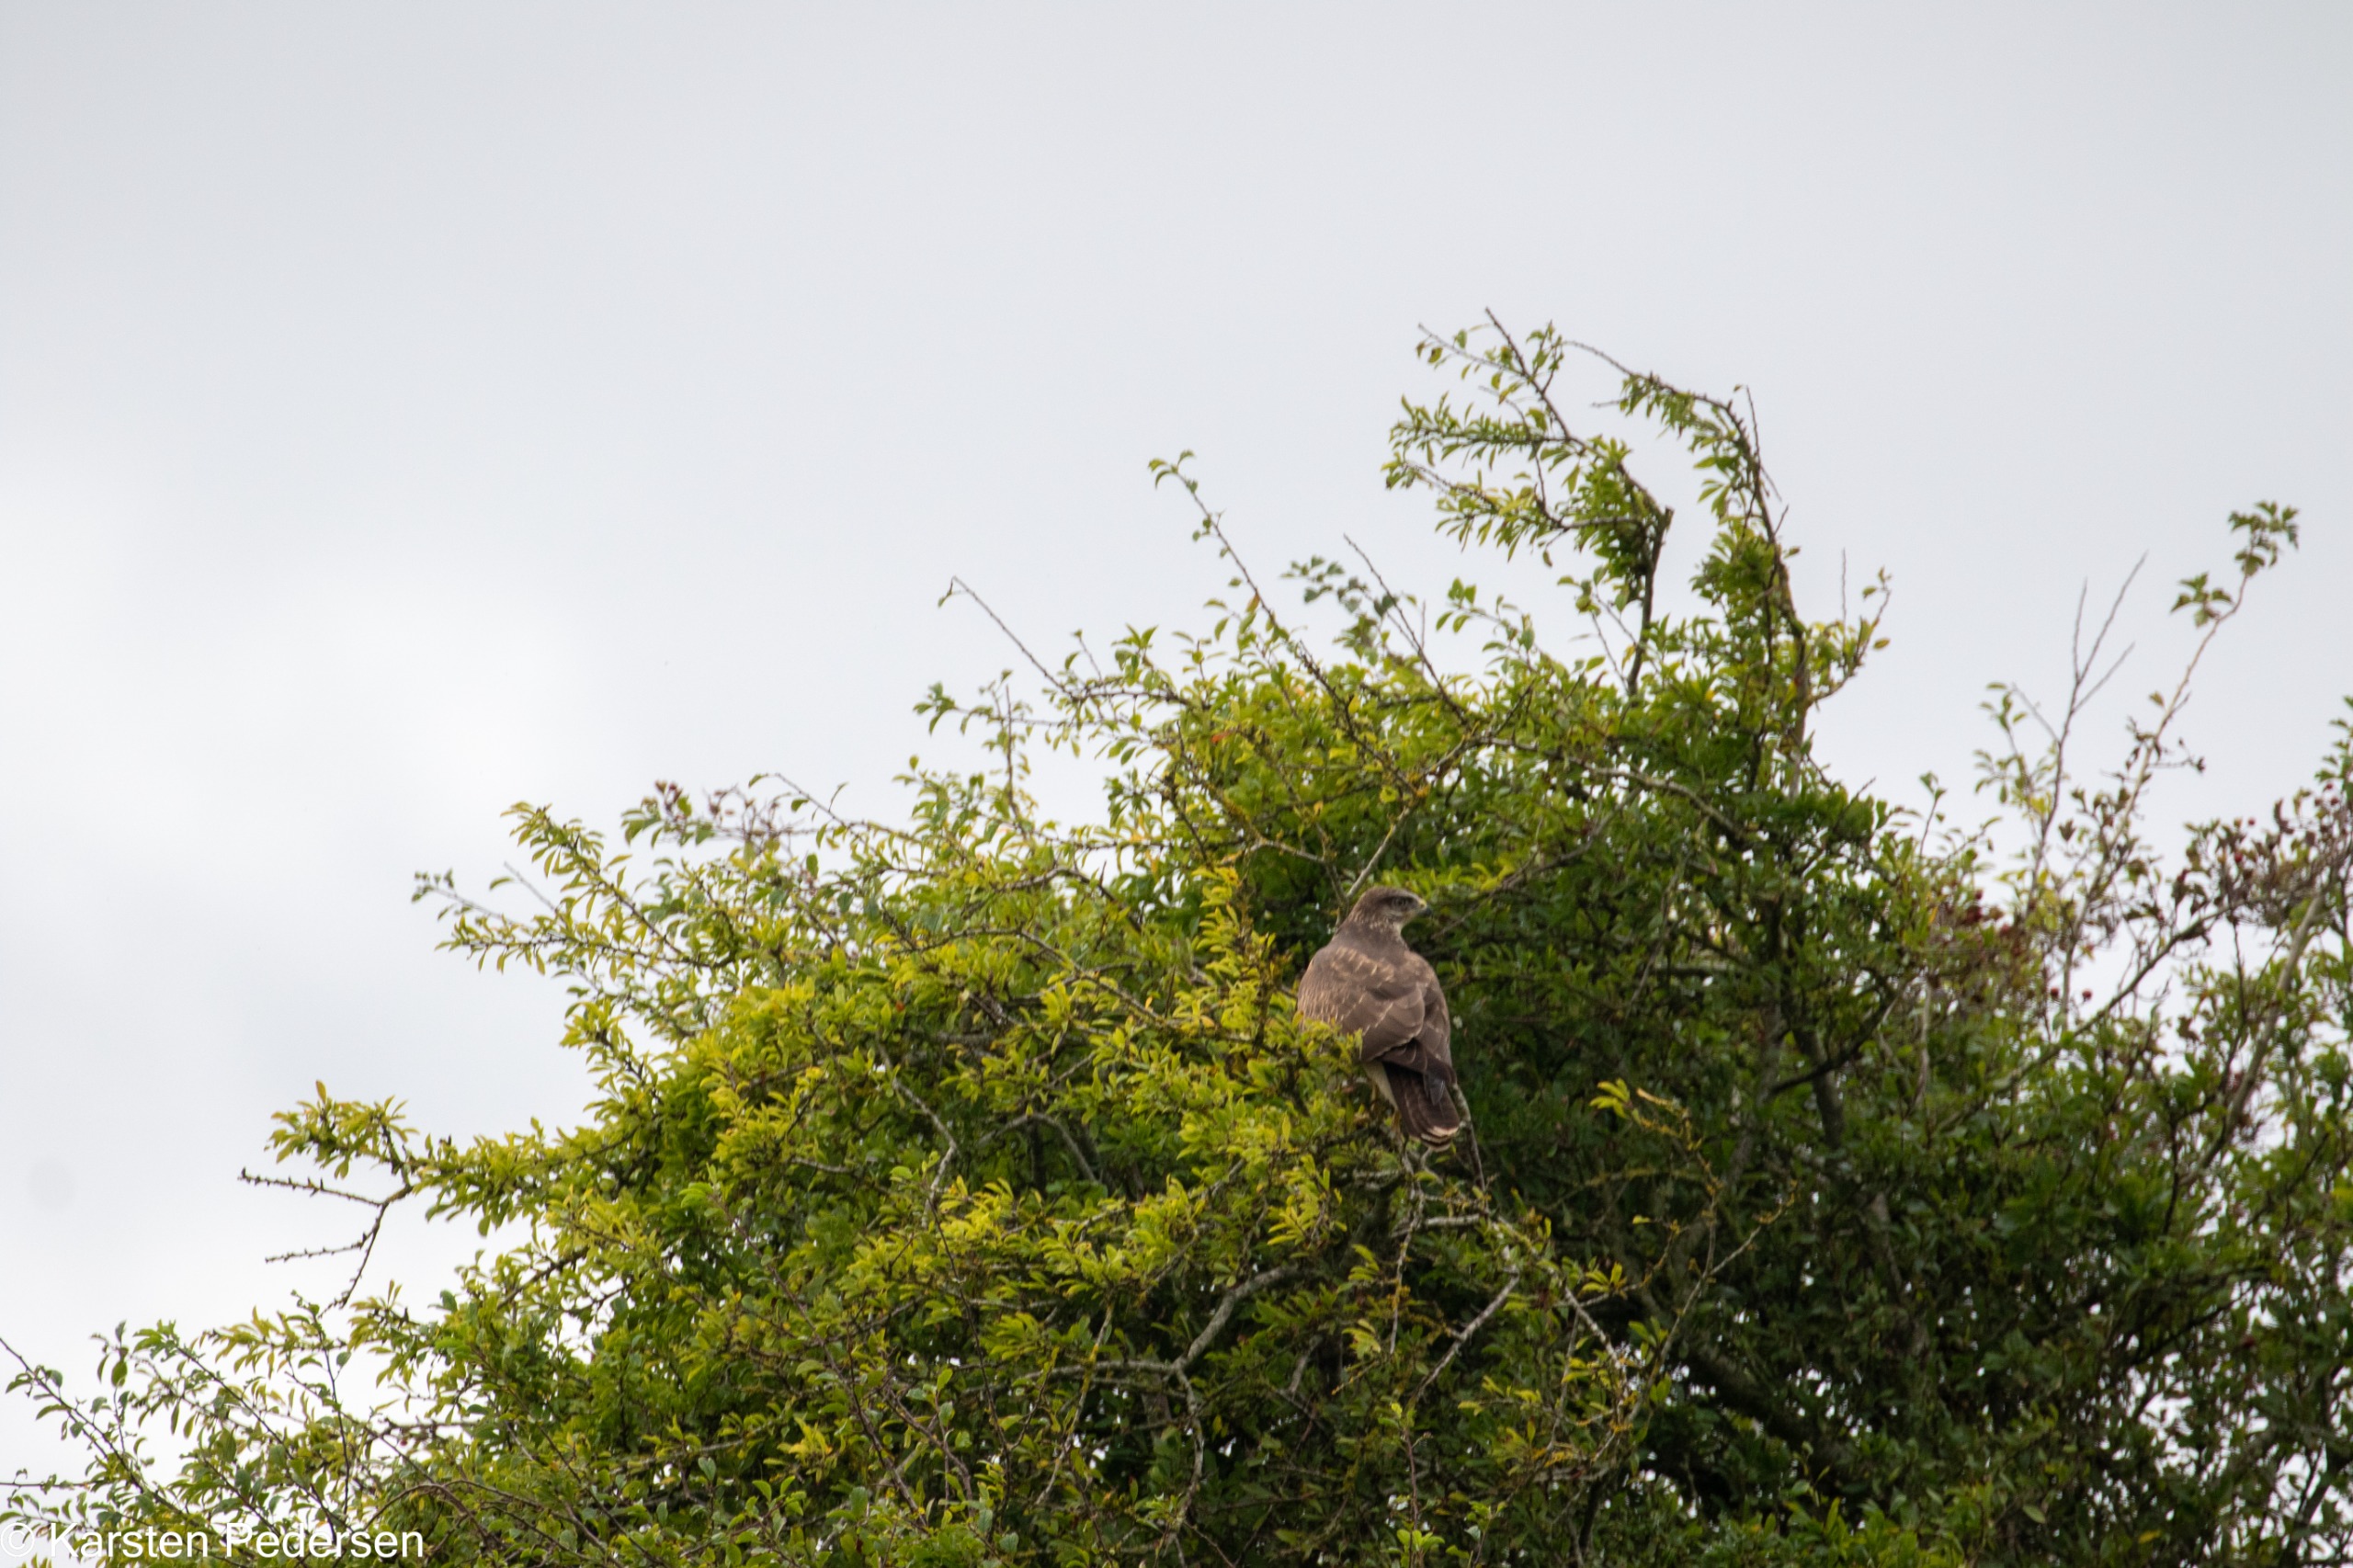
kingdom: Animalia
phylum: Chordata
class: Aves
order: Accipitriformes
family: Accipitridae
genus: Buteo
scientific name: Buteo buteo
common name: Musvåge
